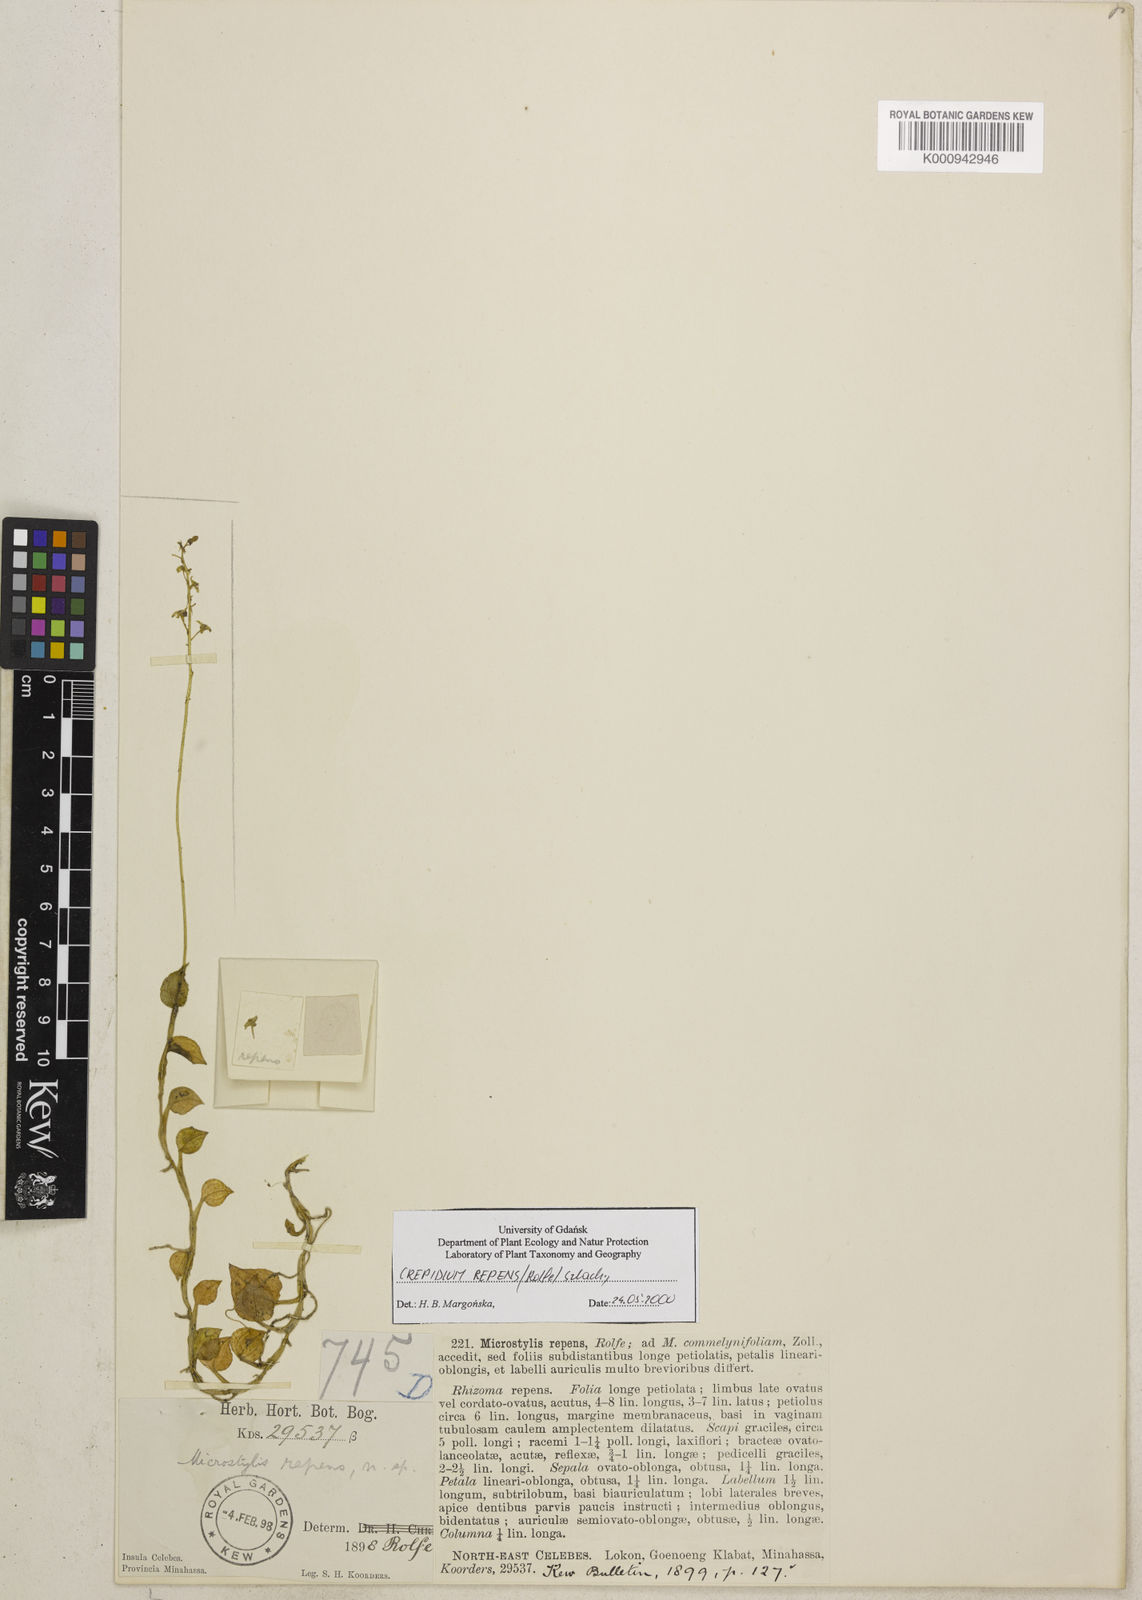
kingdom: Plantae
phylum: Tracheophyta
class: Liliopsida
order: Asparagales
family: Orchidaceae
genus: Crepidium
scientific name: Crepidium repens
